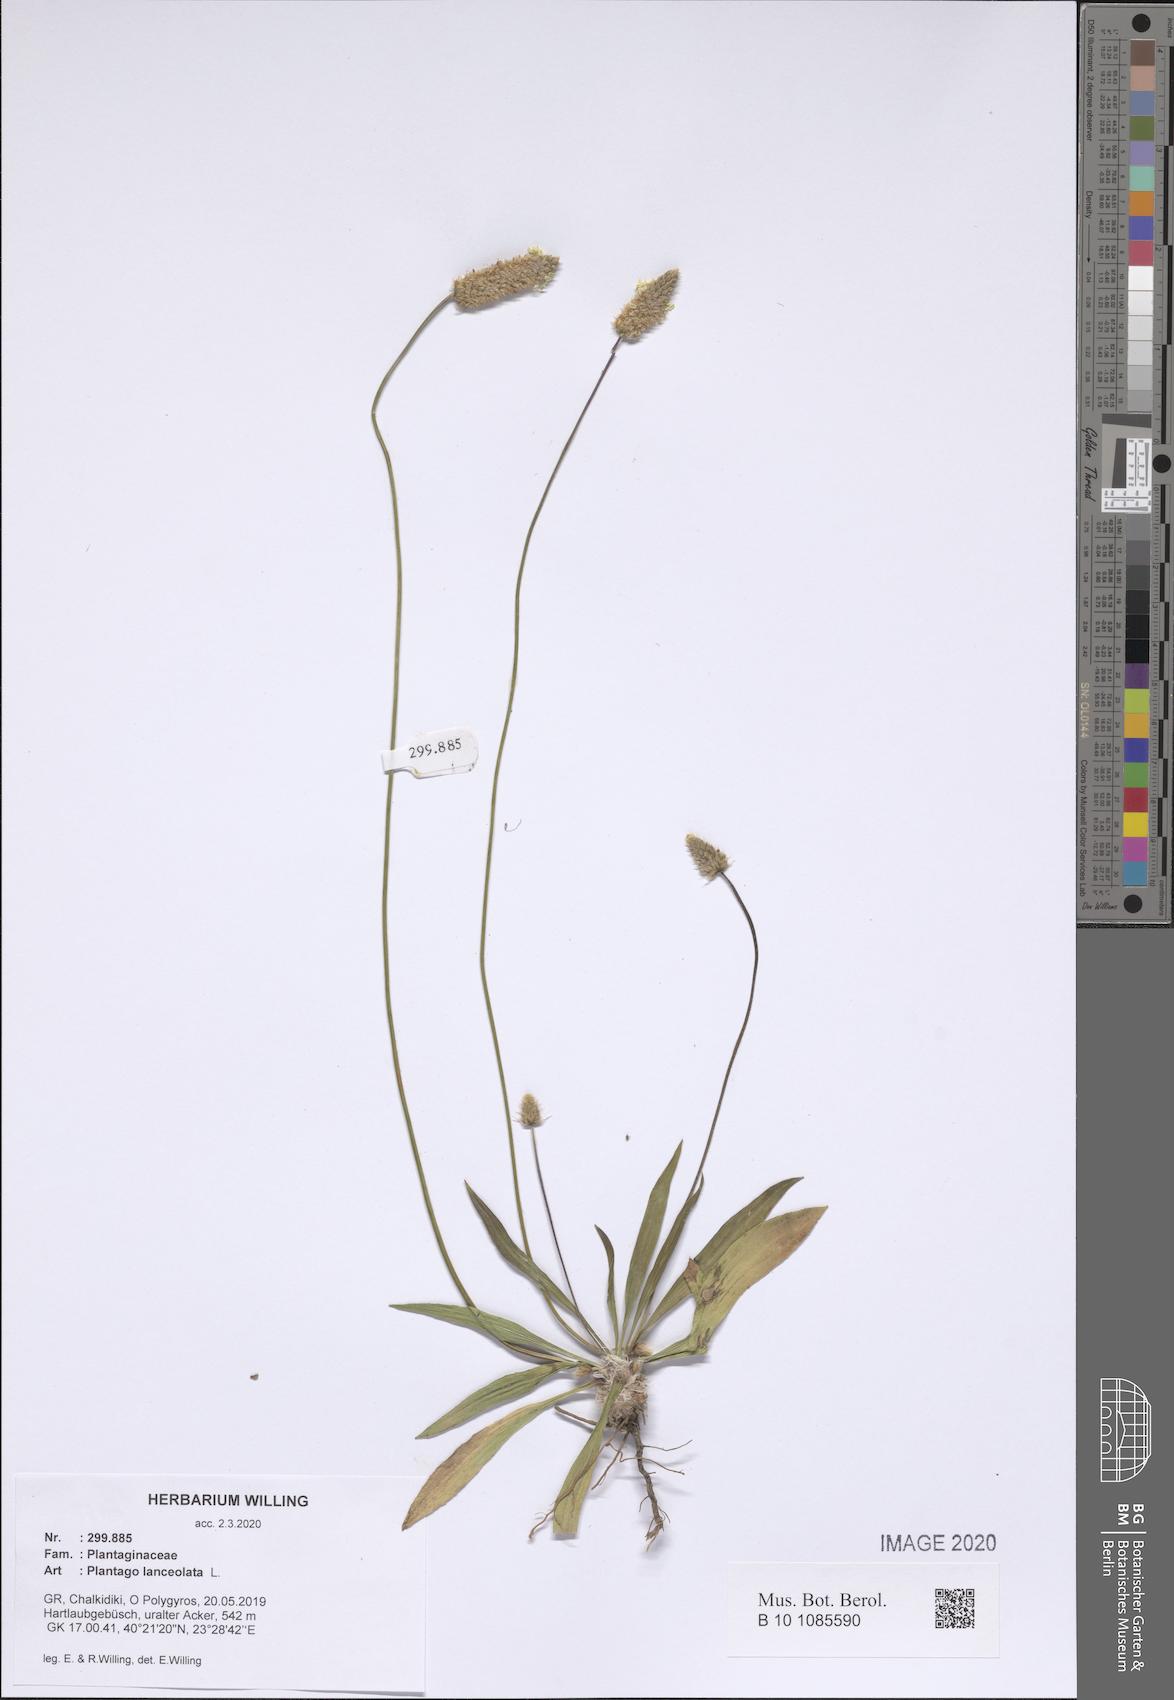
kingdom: Plantae
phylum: Tracheophyta
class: Magnoliopsida
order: Lamiales
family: Plantaginaceae
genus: Plantago
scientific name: Plantago lanceolata
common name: Ribwort plantain
